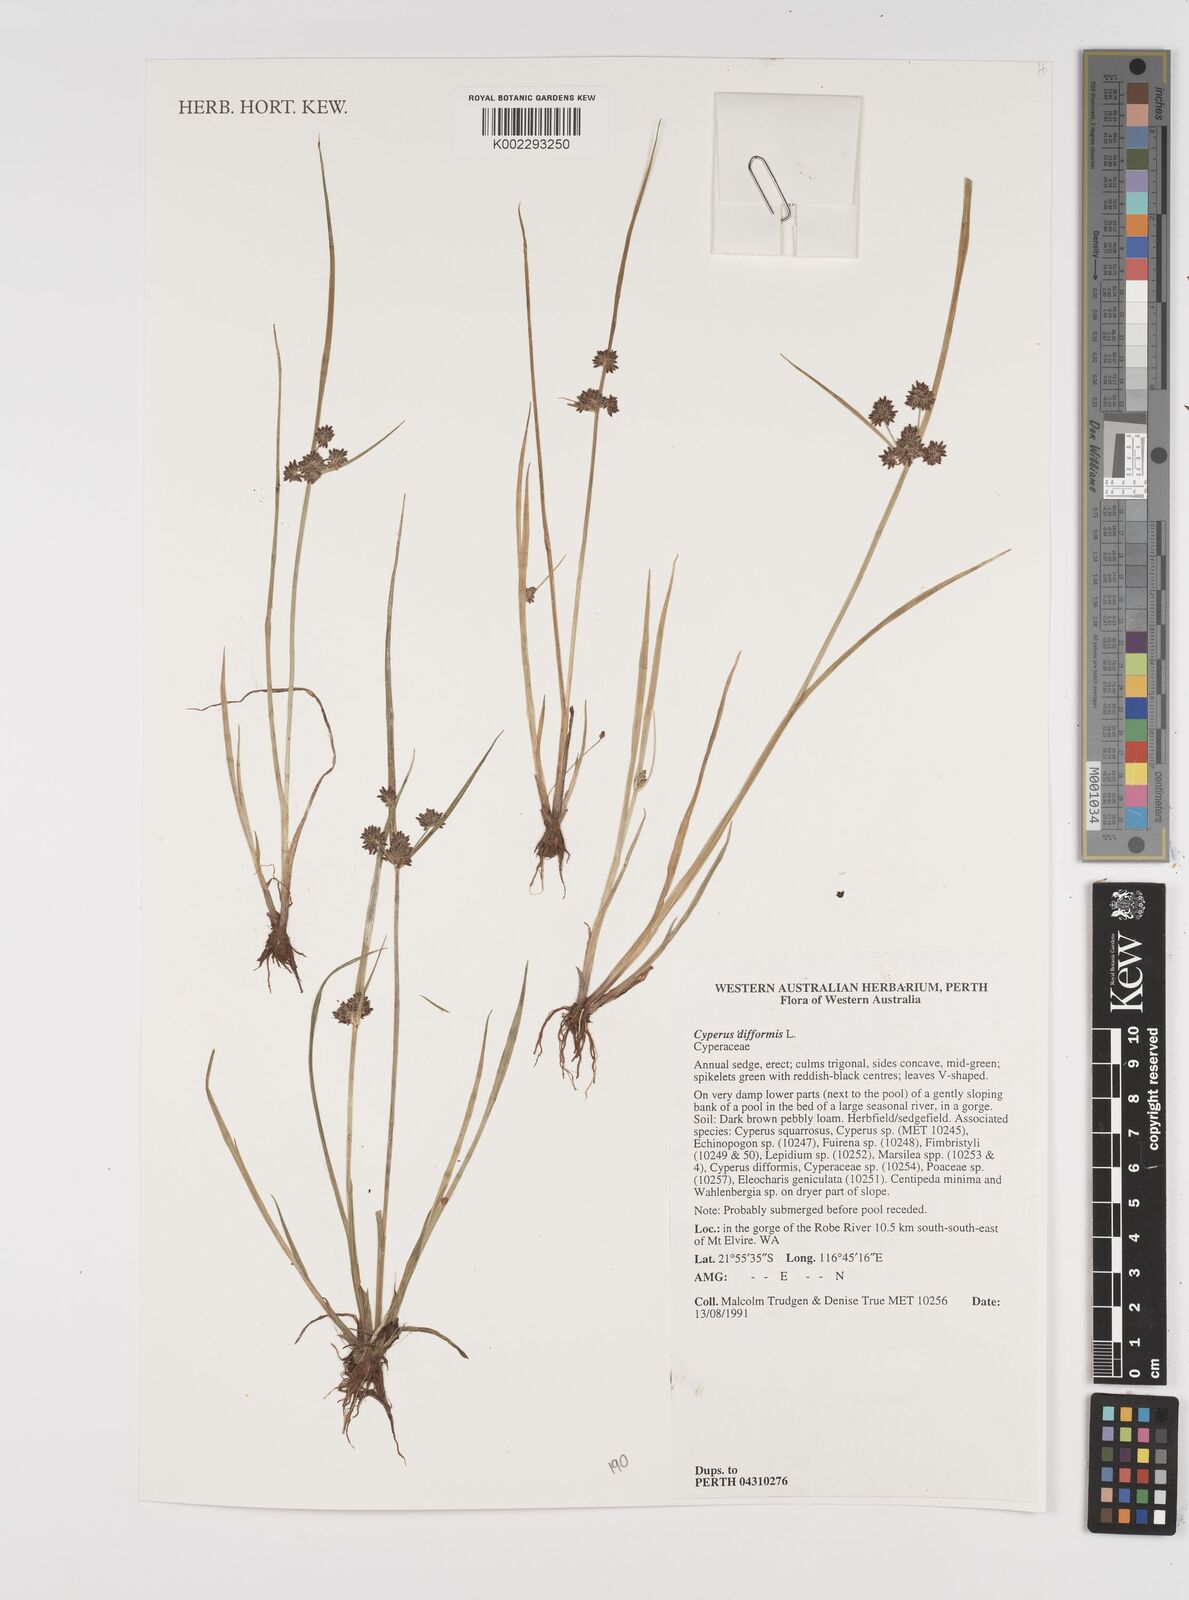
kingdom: Plantae
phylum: Tracheophyta
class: Liliopsida
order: Poales
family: Cyperaceae
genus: Cyperus
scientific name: Cyperus difformis
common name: Variable flatsedge
